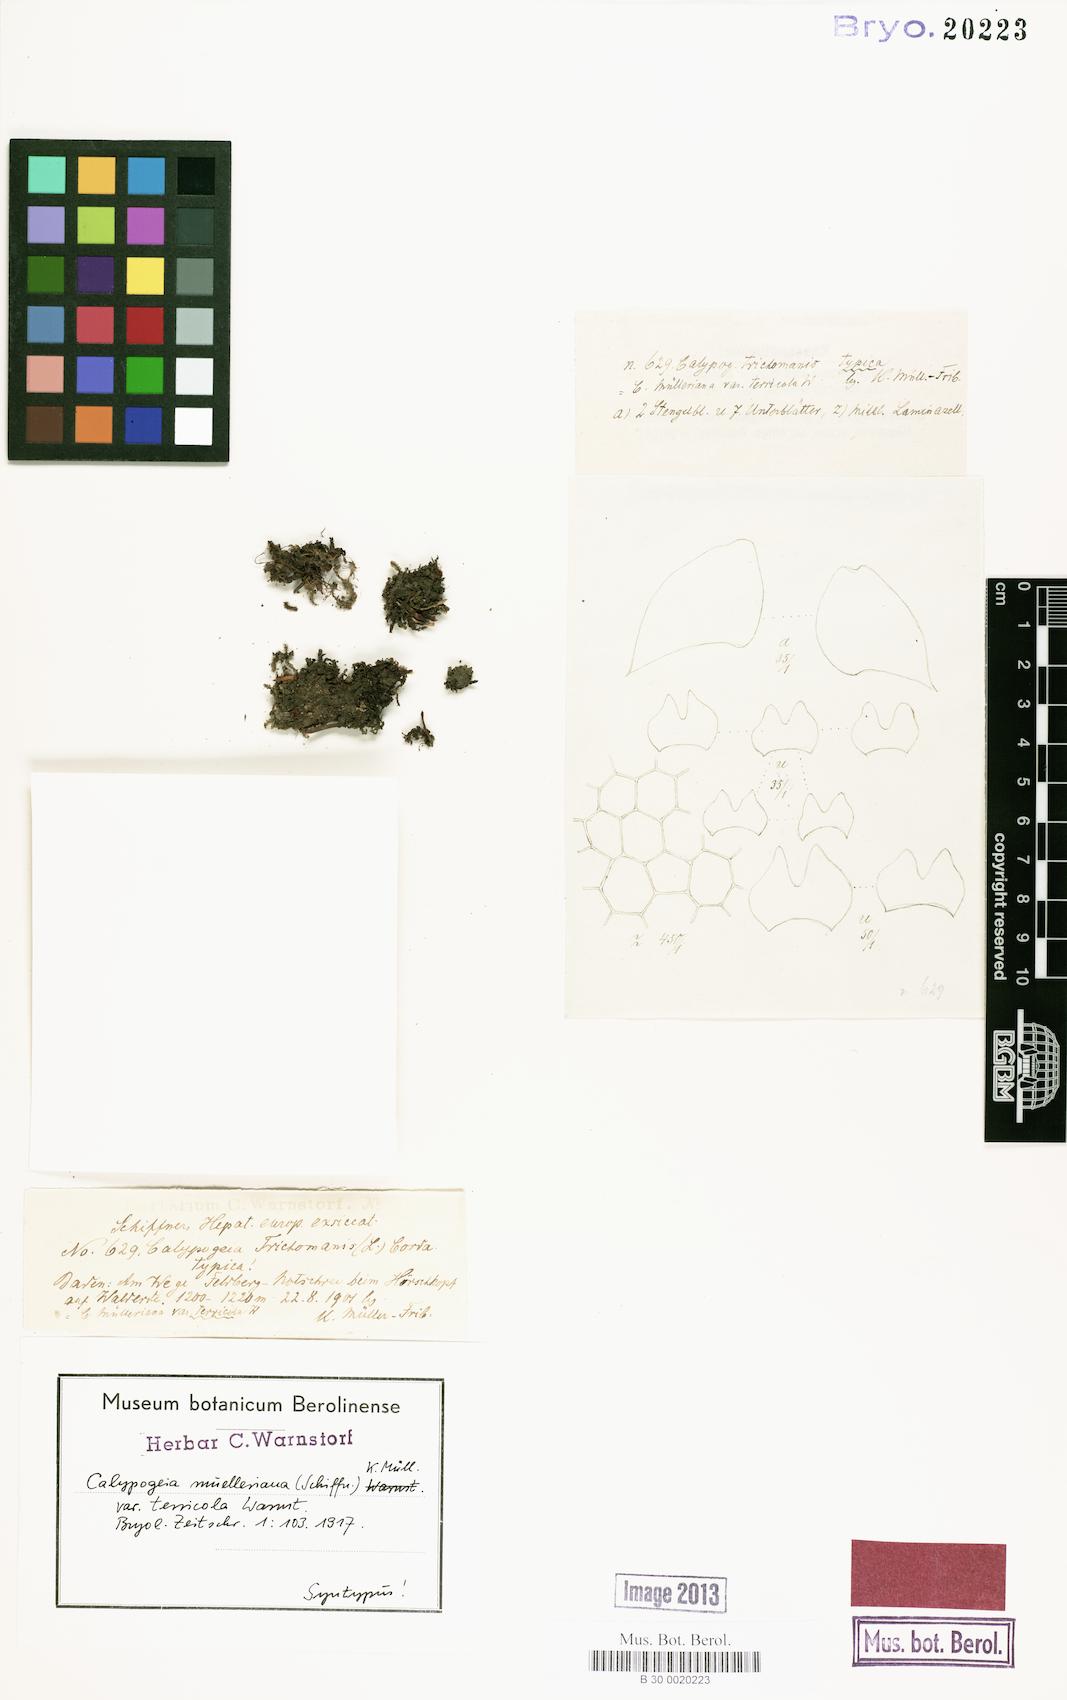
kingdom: Plantae
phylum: Marchantiophyta
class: Jungermanniopsida
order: Jungermanniales
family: Calypogeiaceae
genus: Calypogeia
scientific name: Calypogeia muelleriana
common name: Mueller s pouchwort
